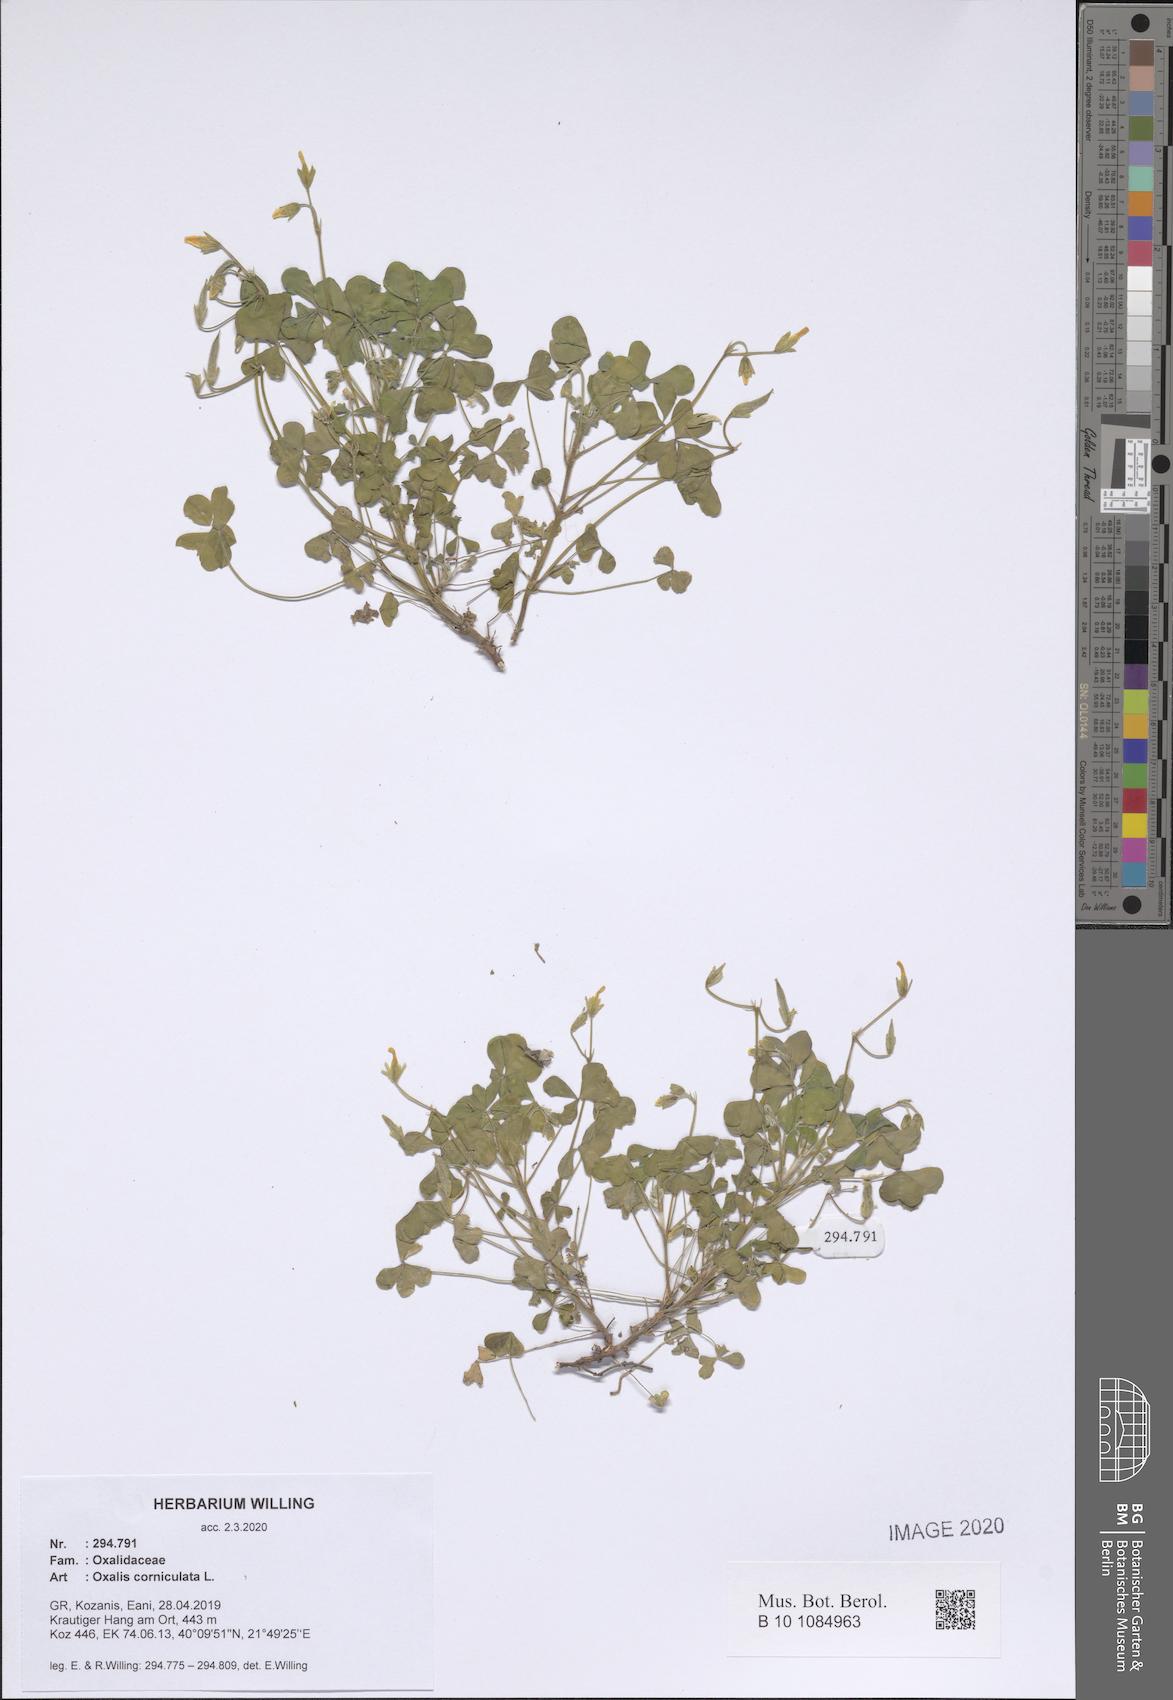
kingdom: Plantae
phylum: Tracheophyta
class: Magnoliopsida
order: Oxalidales
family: Oxalidaceae
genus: Oxalis
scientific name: Oxalis corniculata
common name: Procumbent yellow-sorrel
